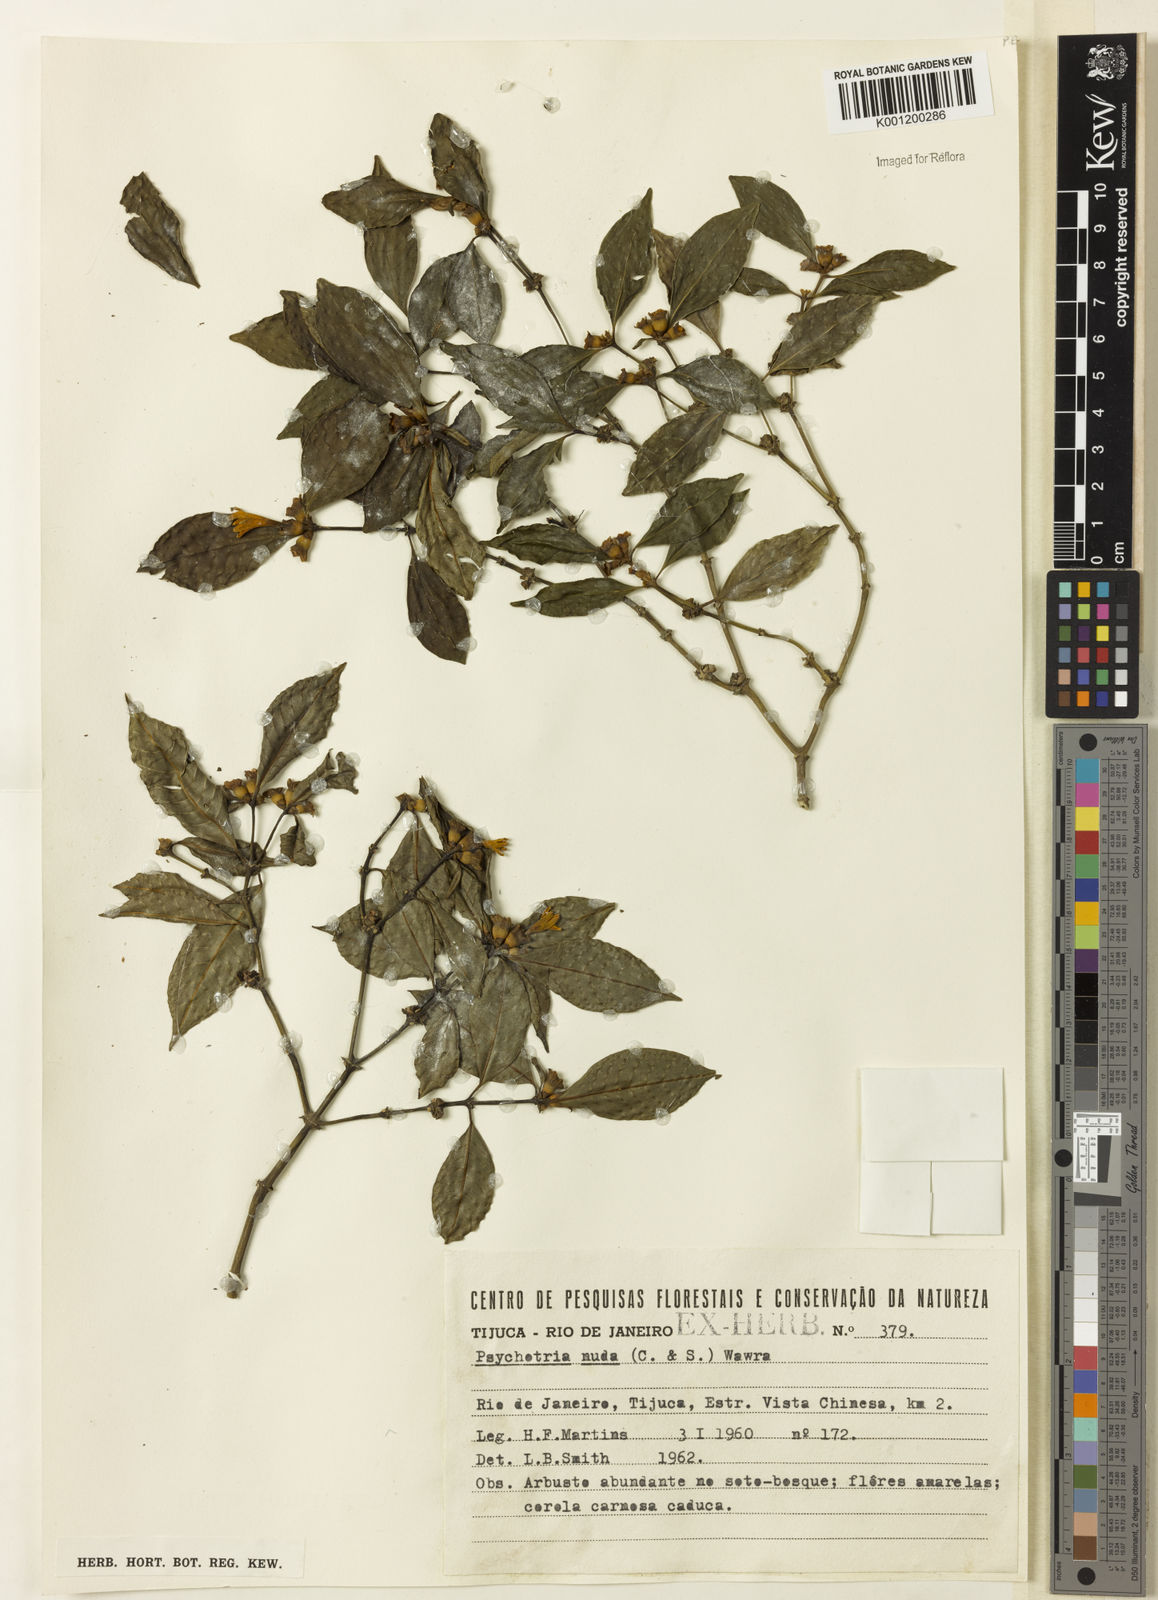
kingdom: Plantae
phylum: Tracheophyta
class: Magnoliopsida
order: Gentianales
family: Rubiaceae
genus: Psychotria
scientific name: Psychotria nuda
